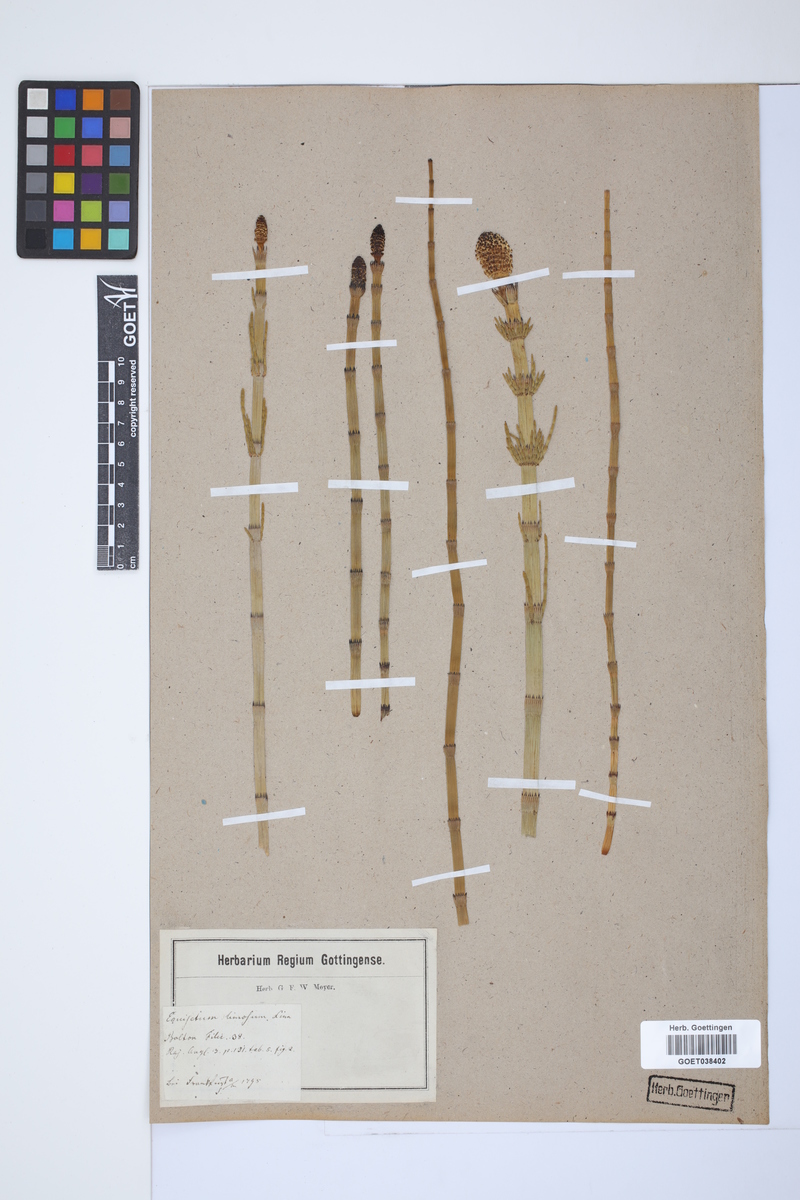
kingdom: Plantae
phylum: Tracheophyta
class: Polypodiopsida
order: Equisetales
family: Equisetaceae
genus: Equisetum
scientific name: Equisetum fluviatile
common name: Water horsetail
